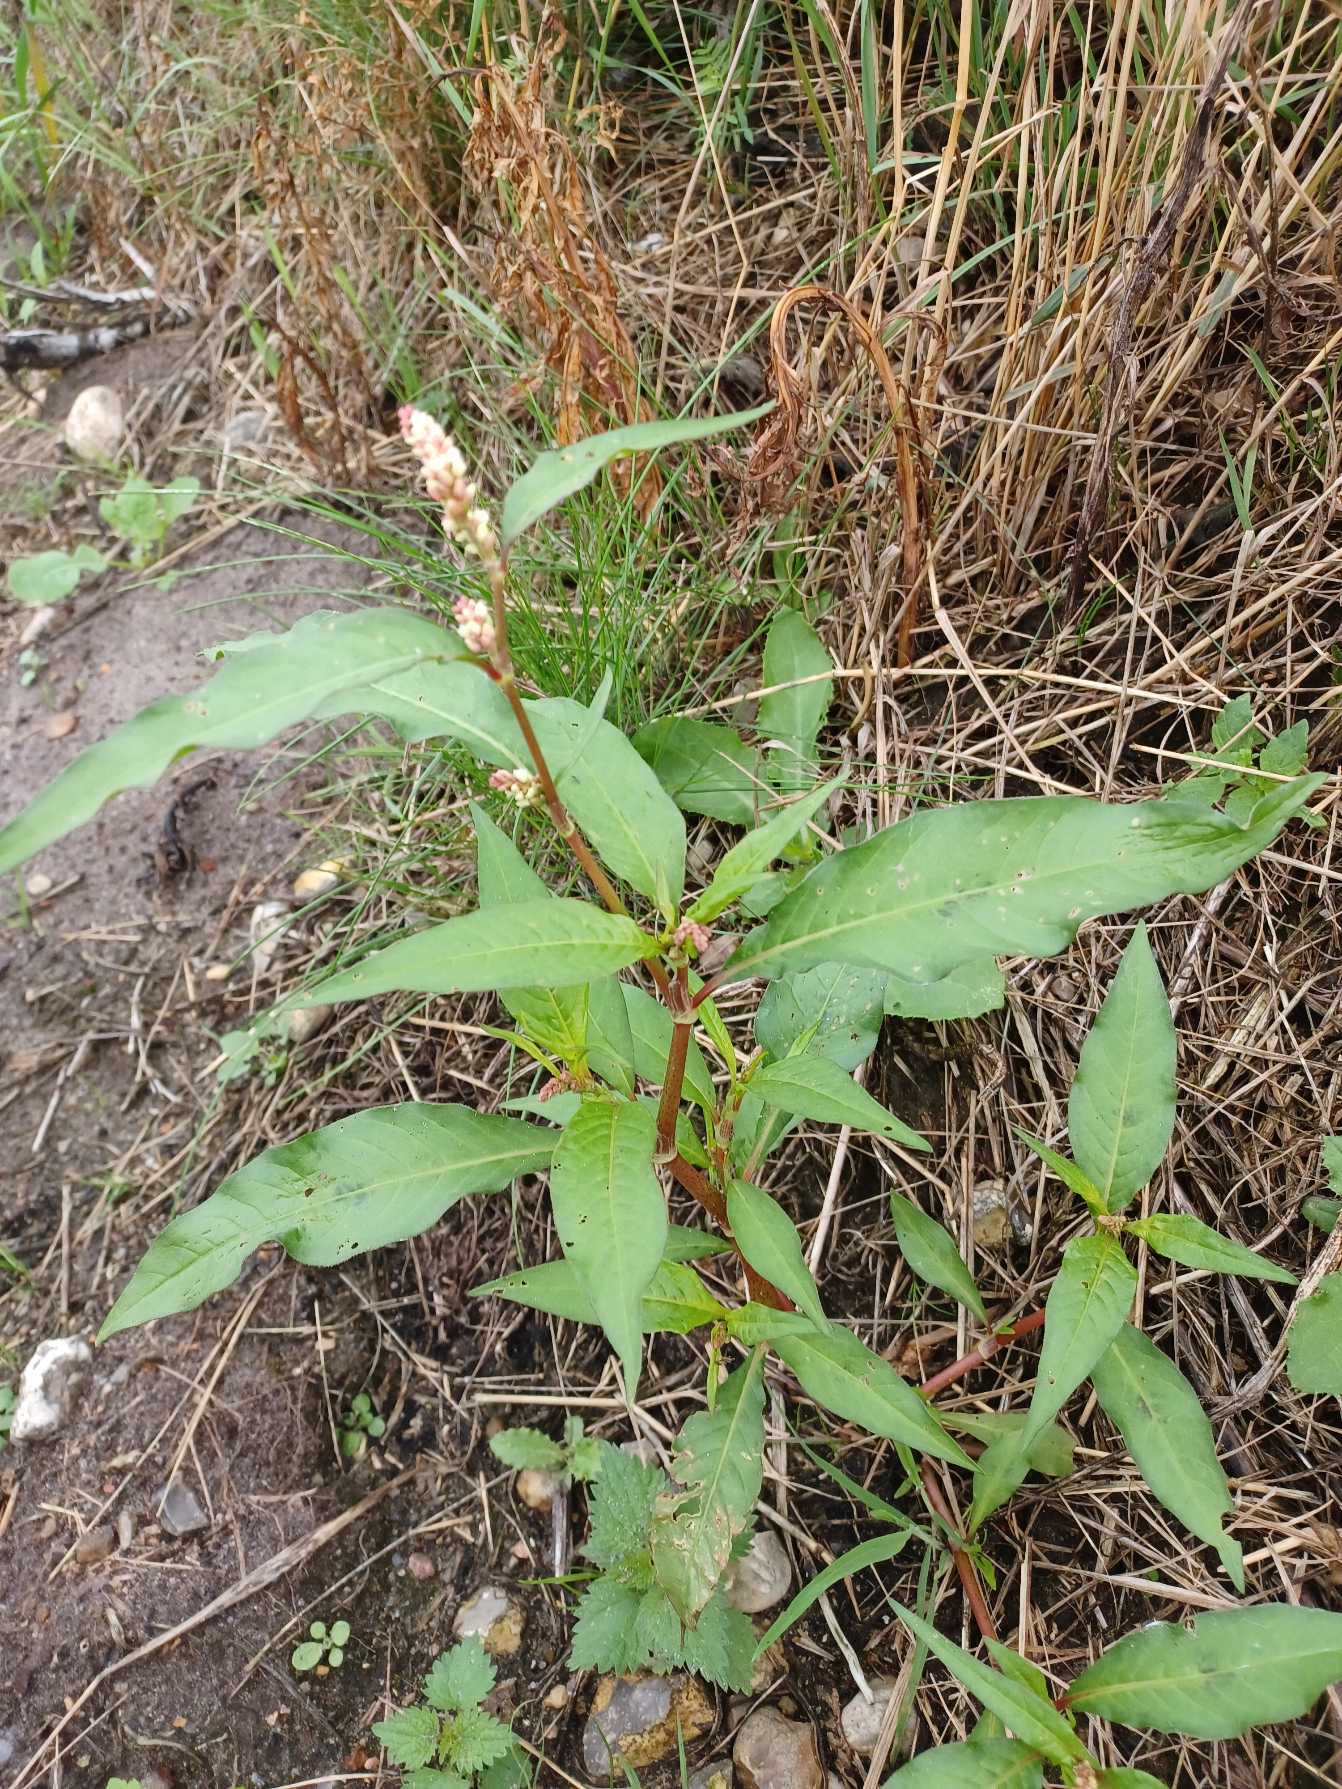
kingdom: Plantae
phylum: Tracheophyta
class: Magnoliopsida
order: Caryophyllales
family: Polygonaceae
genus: Persicaria
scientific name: Persicaria lapathifolia
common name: Knudet pileurt
